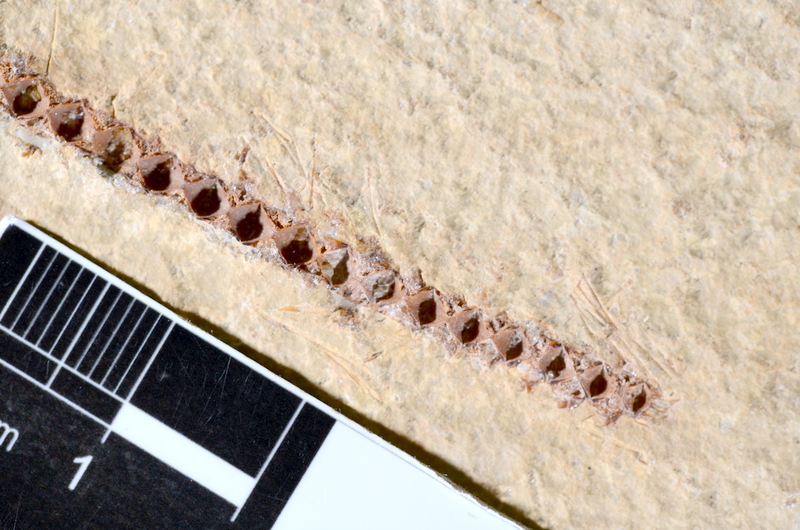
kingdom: Animalia
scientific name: Animalia
